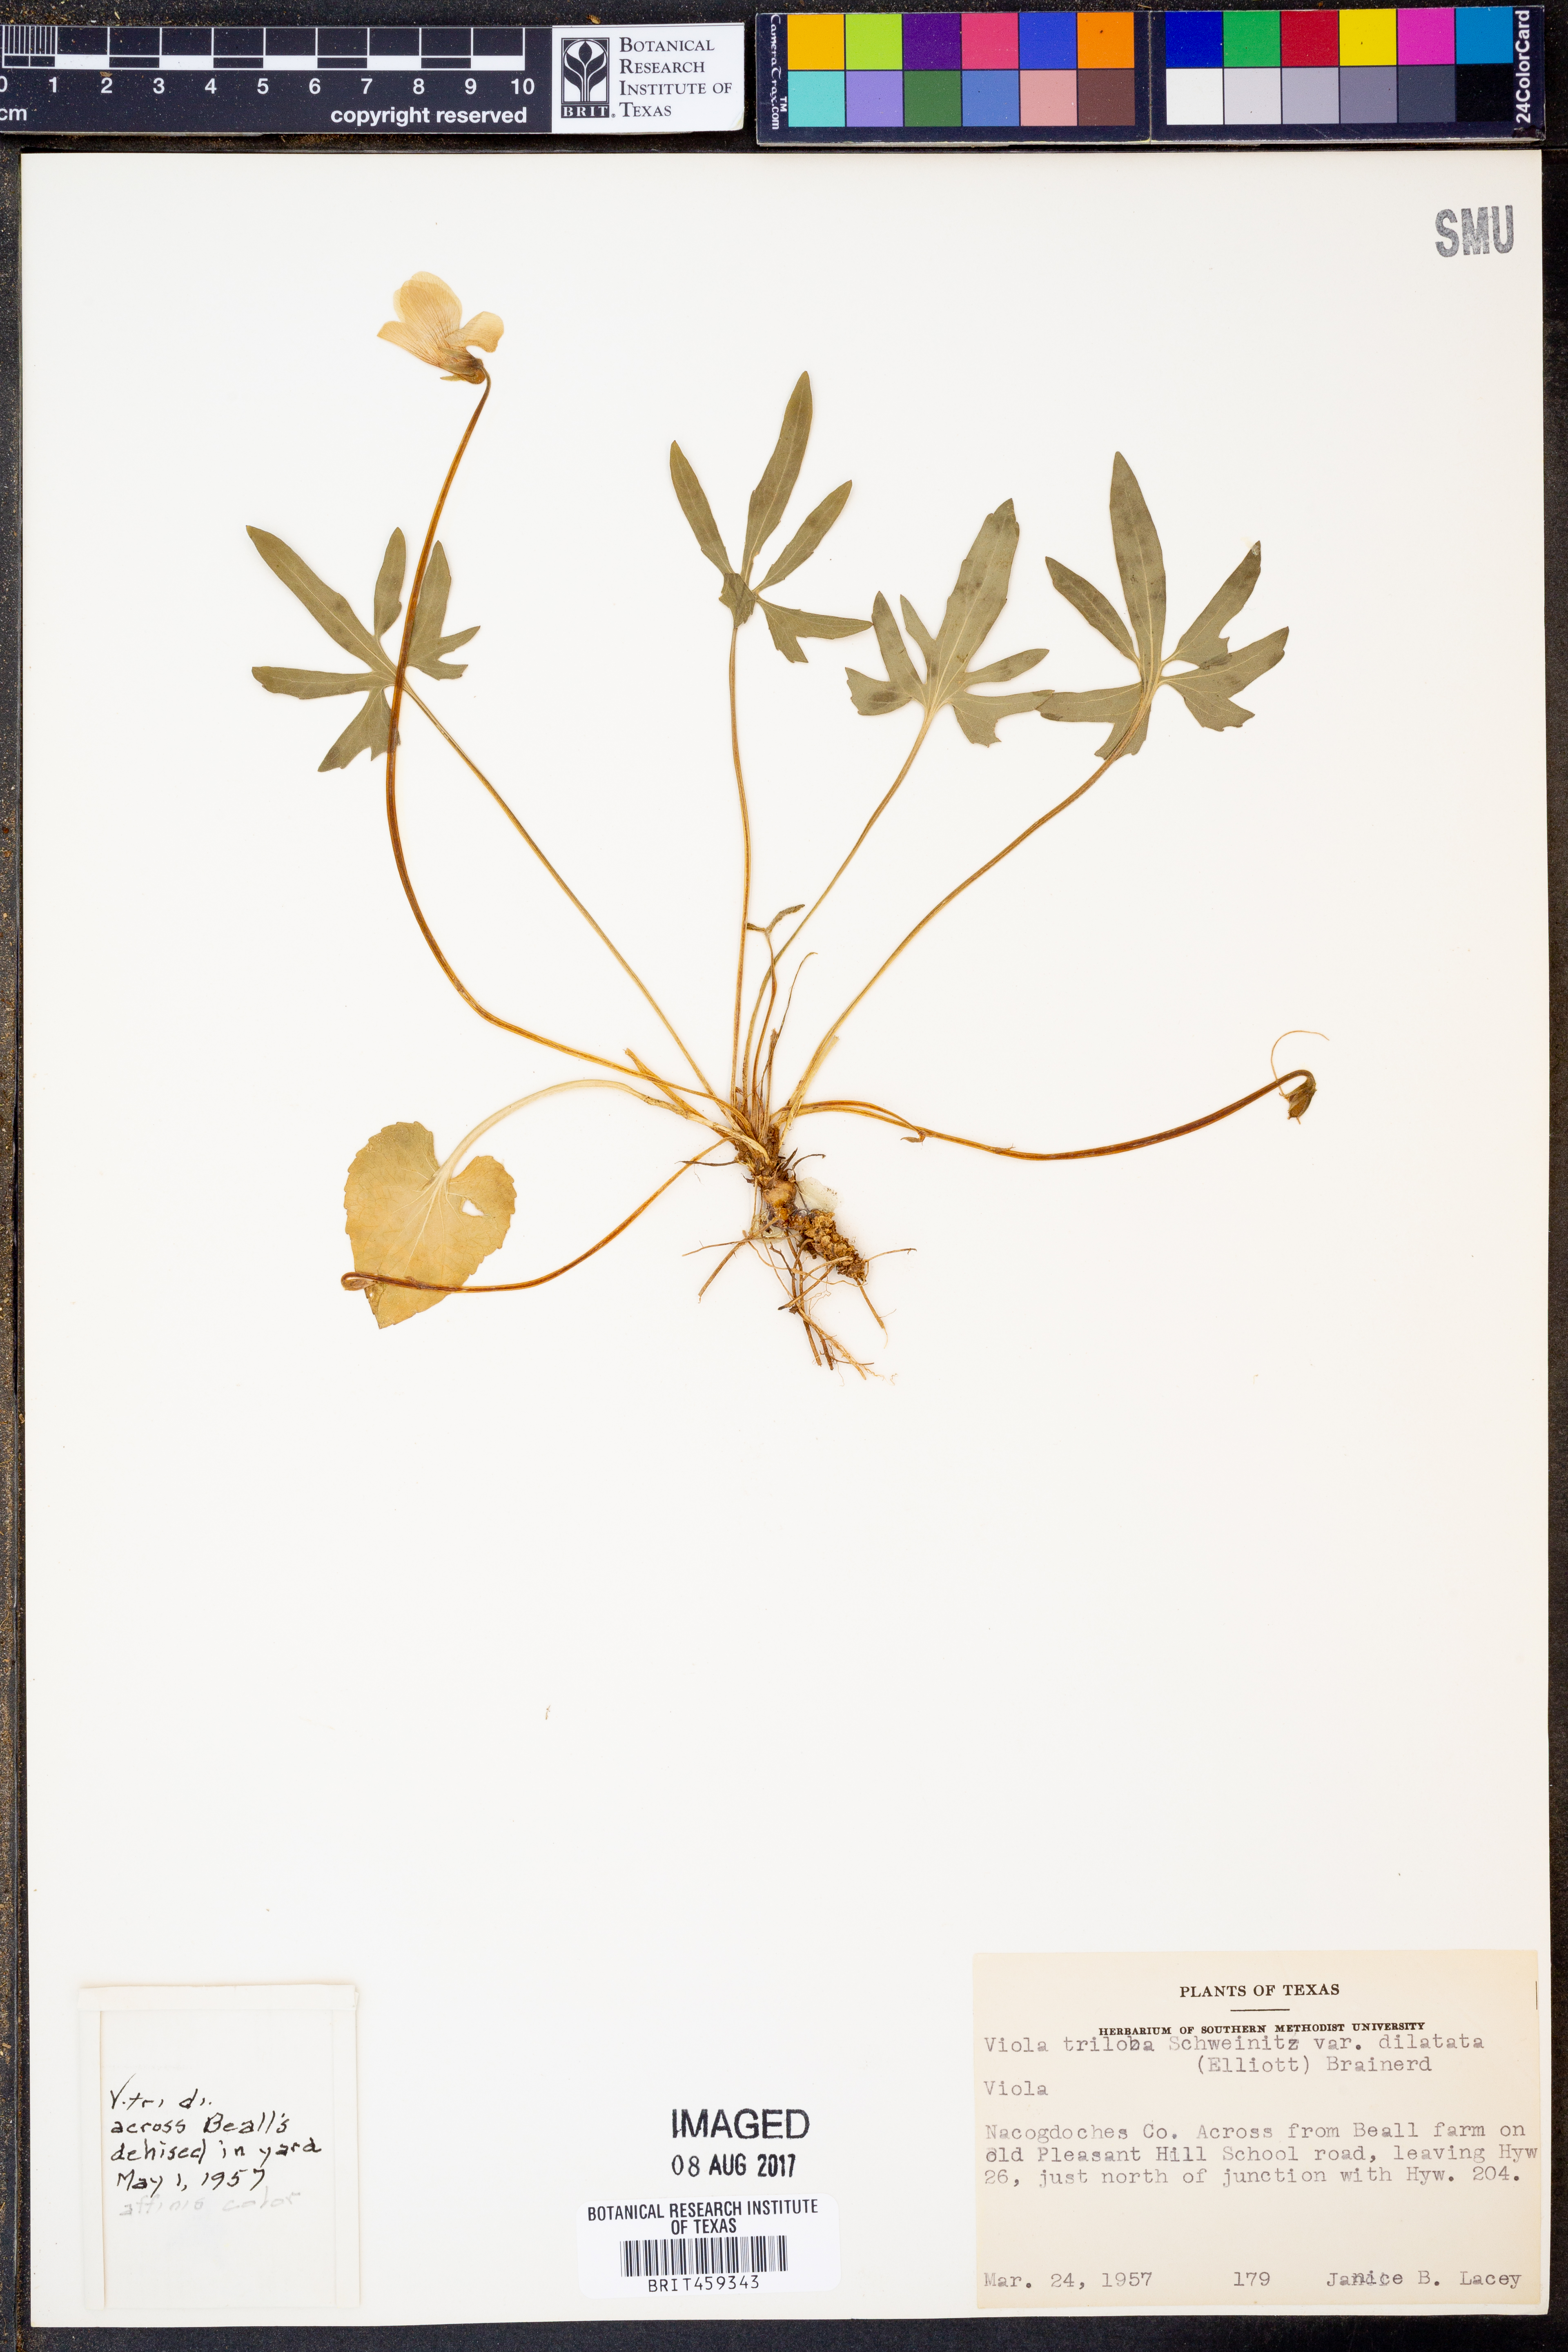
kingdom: Plantae
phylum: Tracheophyta
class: Magnoliopsida
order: Malpighiales
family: Violaceae
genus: Viola
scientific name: Viola palmata
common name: Early blue violet
